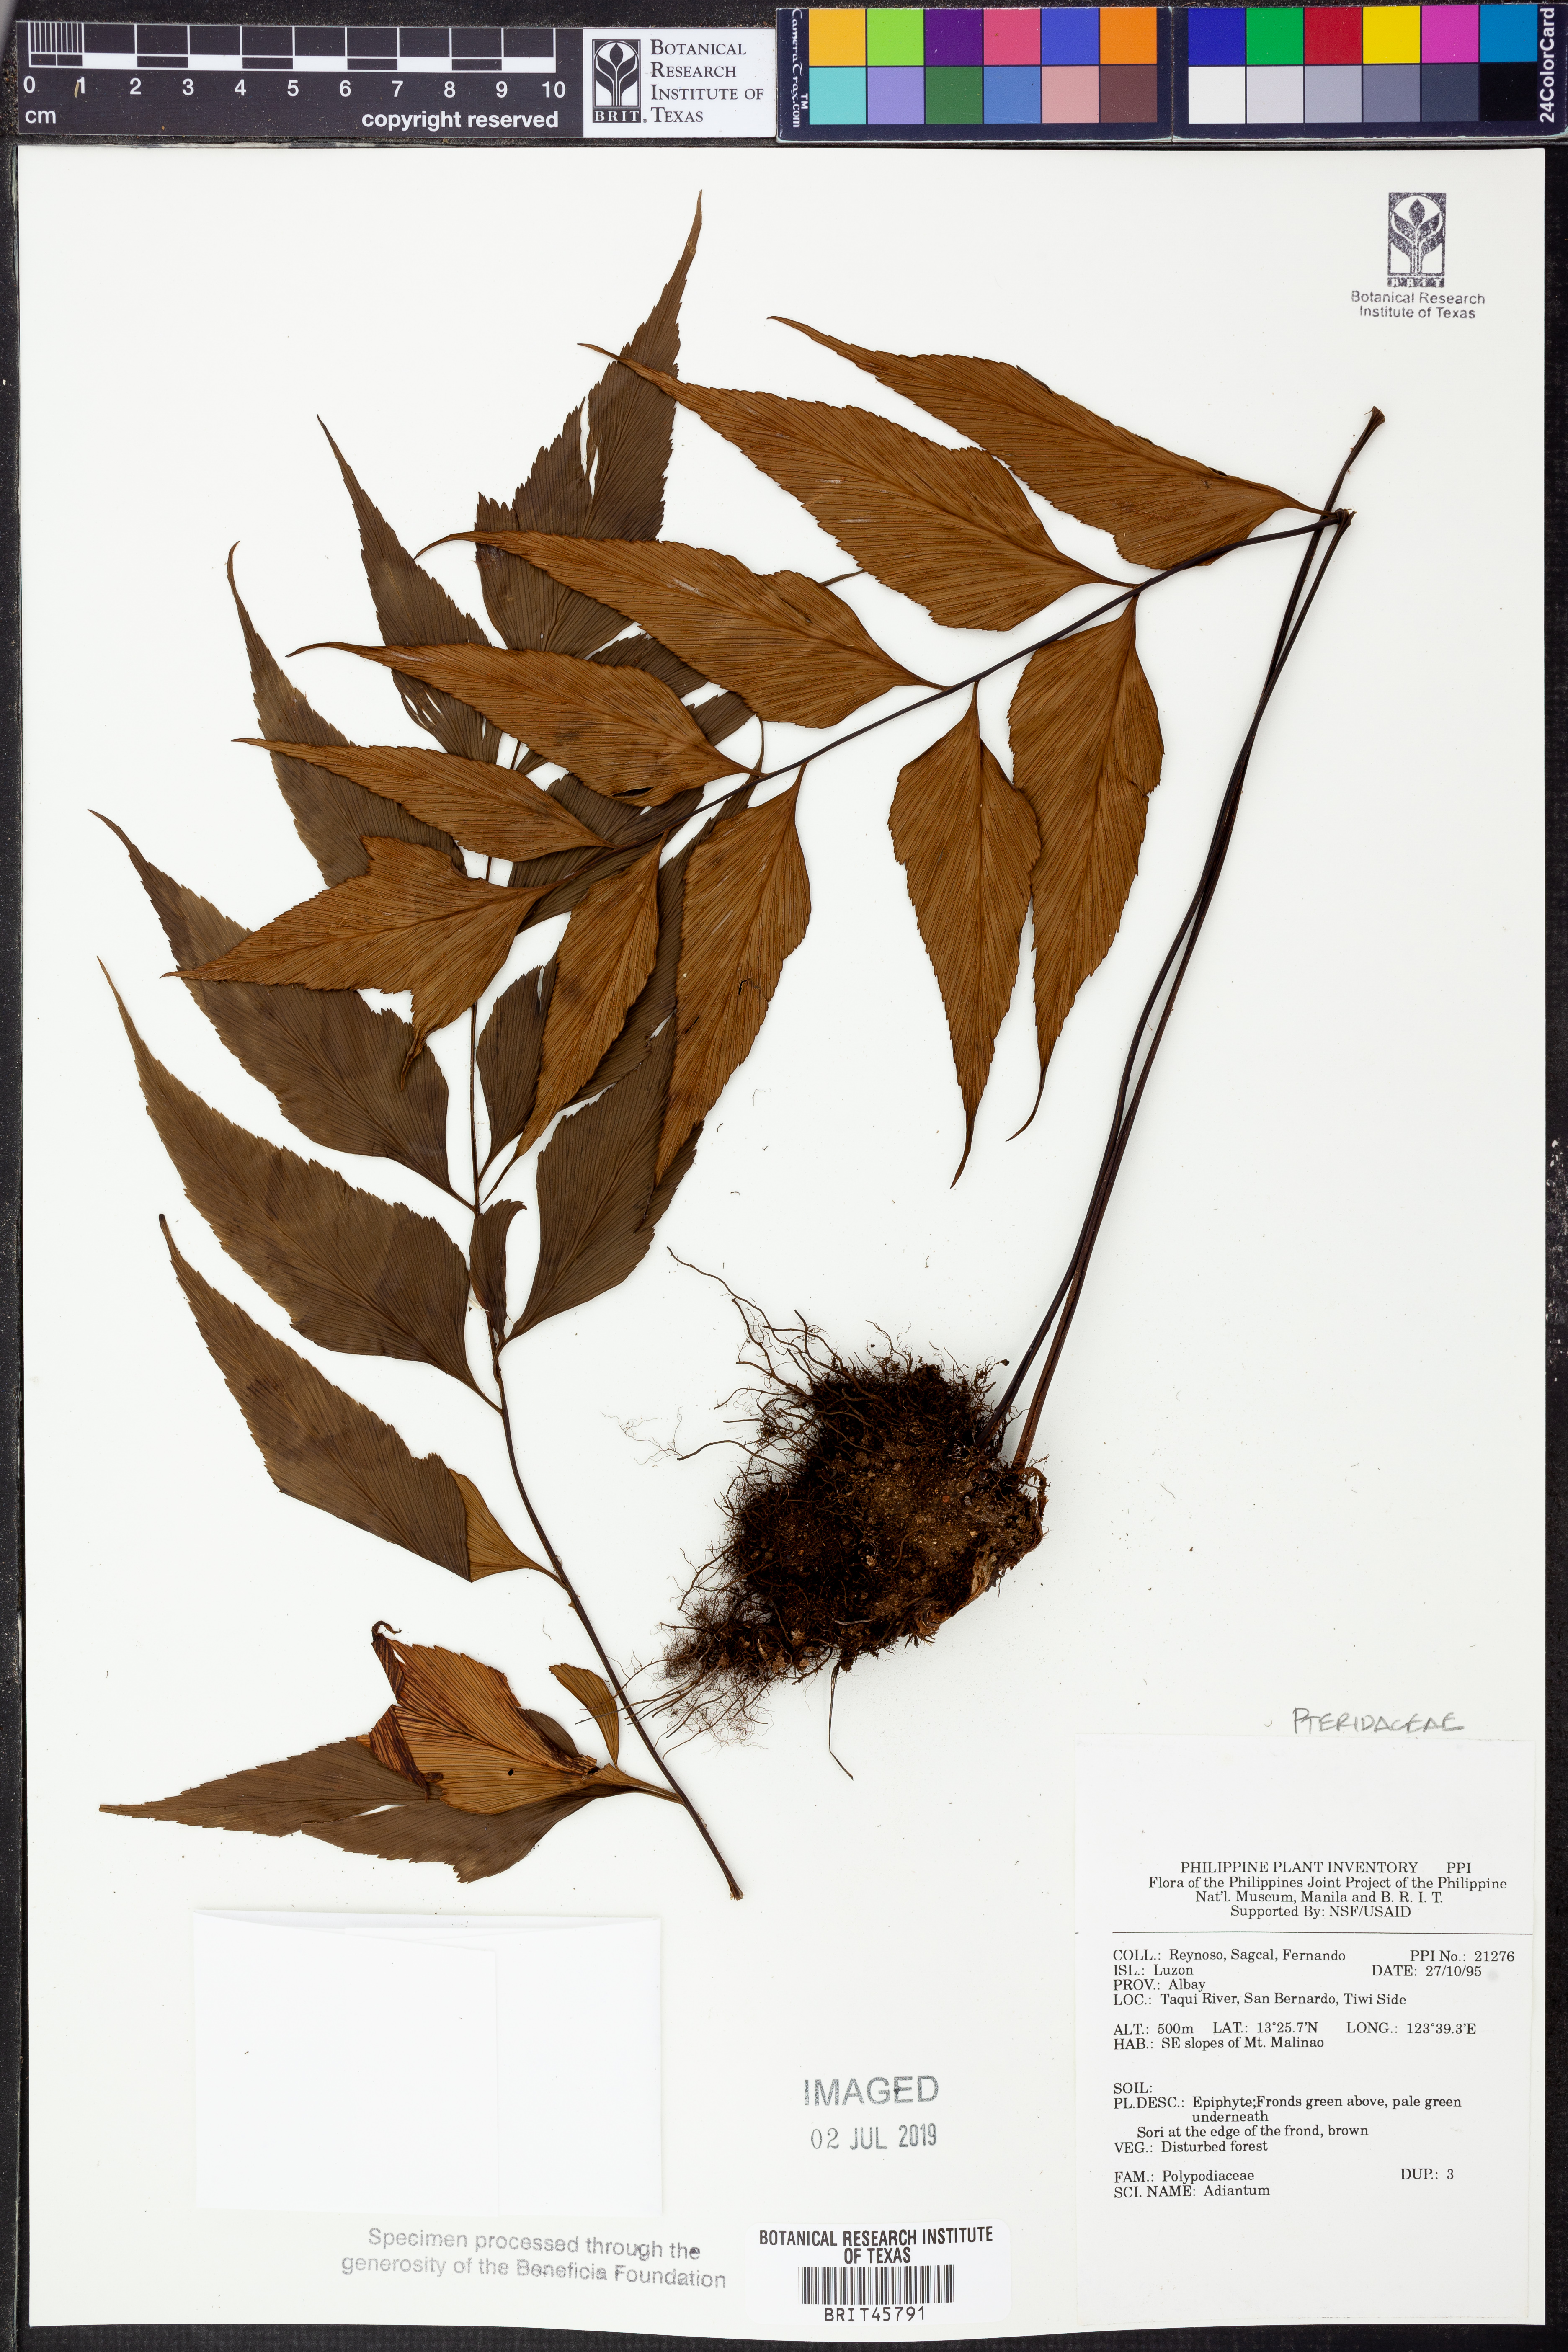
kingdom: Plantae
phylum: Tracheophyta
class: Polypodiopsida
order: Polypodiales
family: Pteridaceae
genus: Adiantum
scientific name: Adiantum
